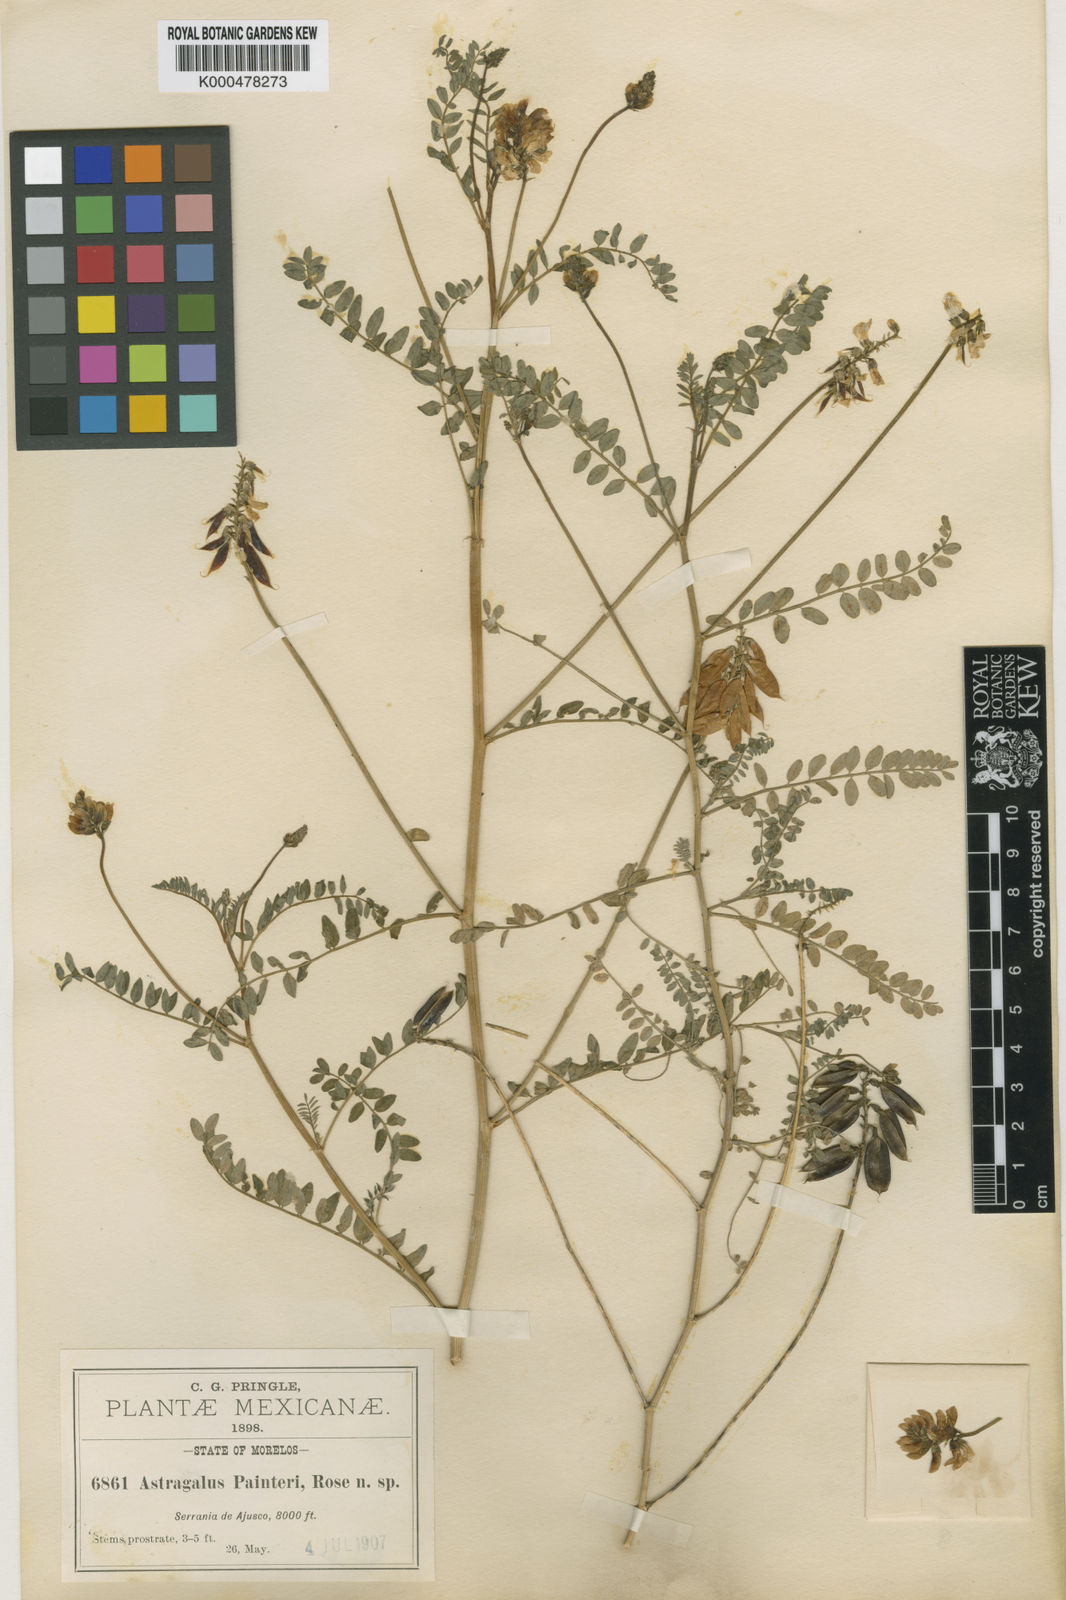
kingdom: Plantae
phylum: Tracheophyta
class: Magnoliopsida
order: Fabales
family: Fabaceae
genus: Astragalus
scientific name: Astragalus
